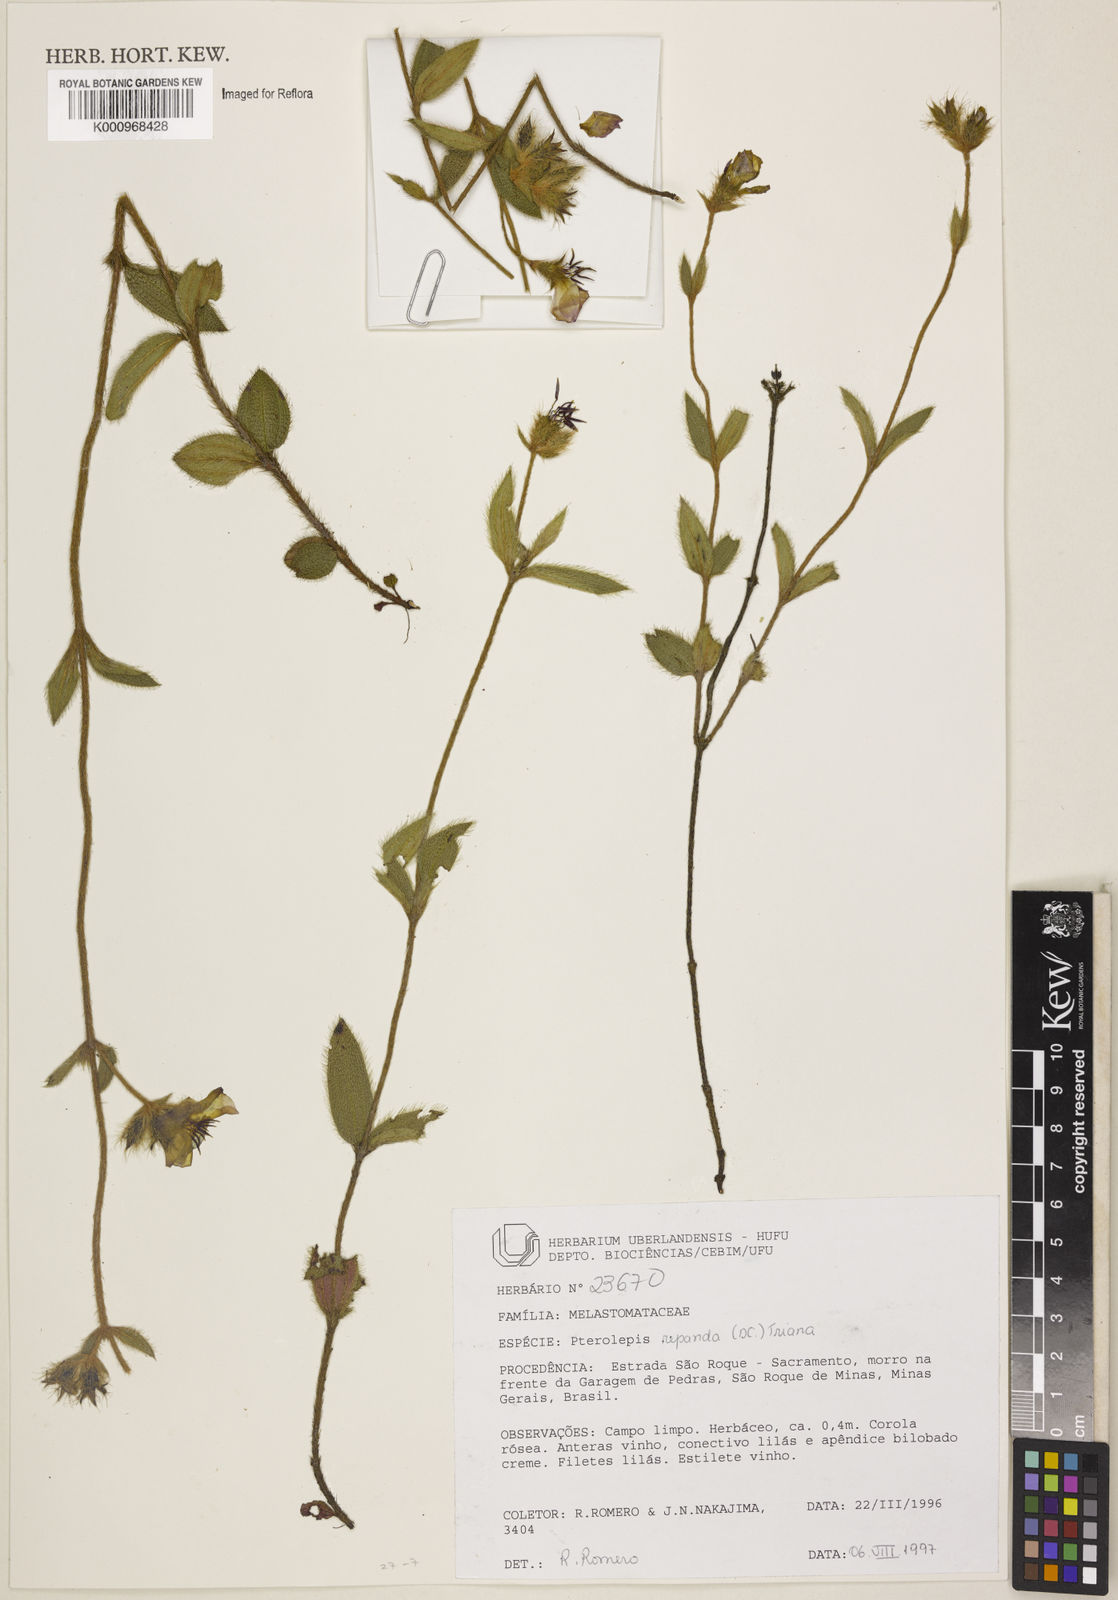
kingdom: Plantae
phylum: Tracheophyta
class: Magnoliopsida
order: Myrtales
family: Melastomataceae
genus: Pterolepis
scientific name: Pterolepis repanda
